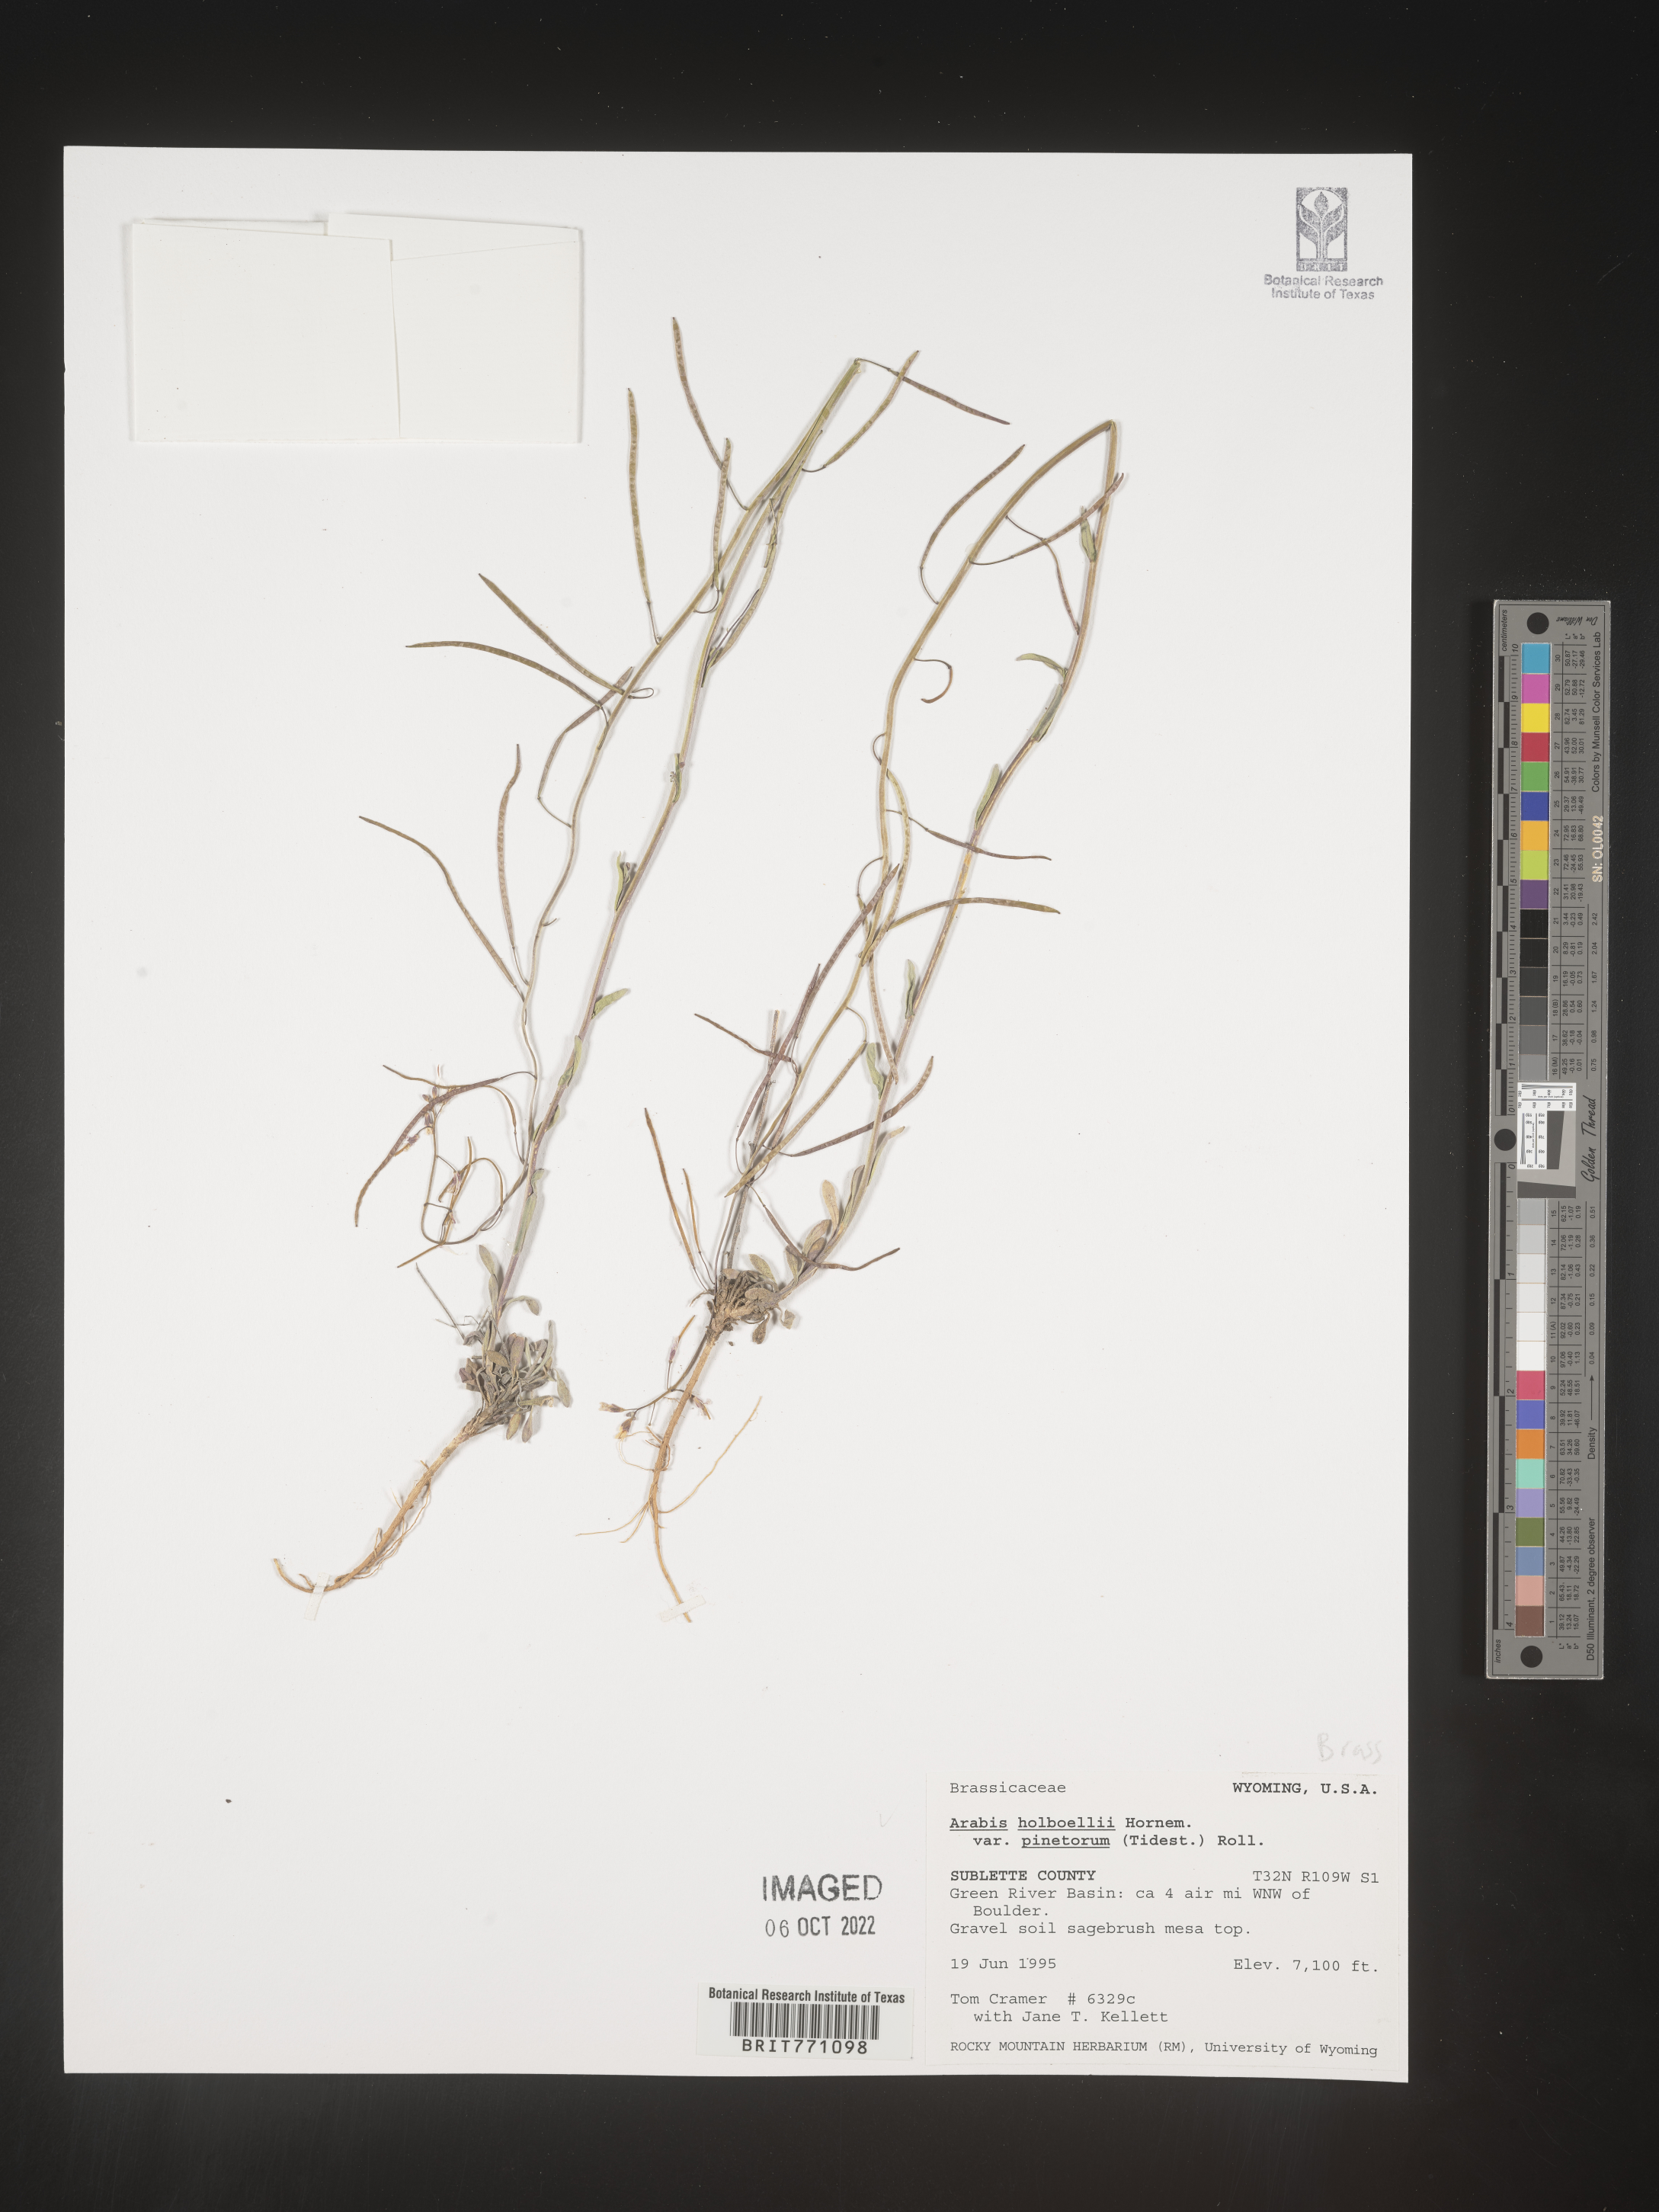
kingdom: Plantae
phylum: Tracheophyta
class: Magnoliopsida
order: Brassicales
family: Brassicaceae
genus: Boechera
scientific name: Boechera holboellii
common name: Holboell's rockcress
